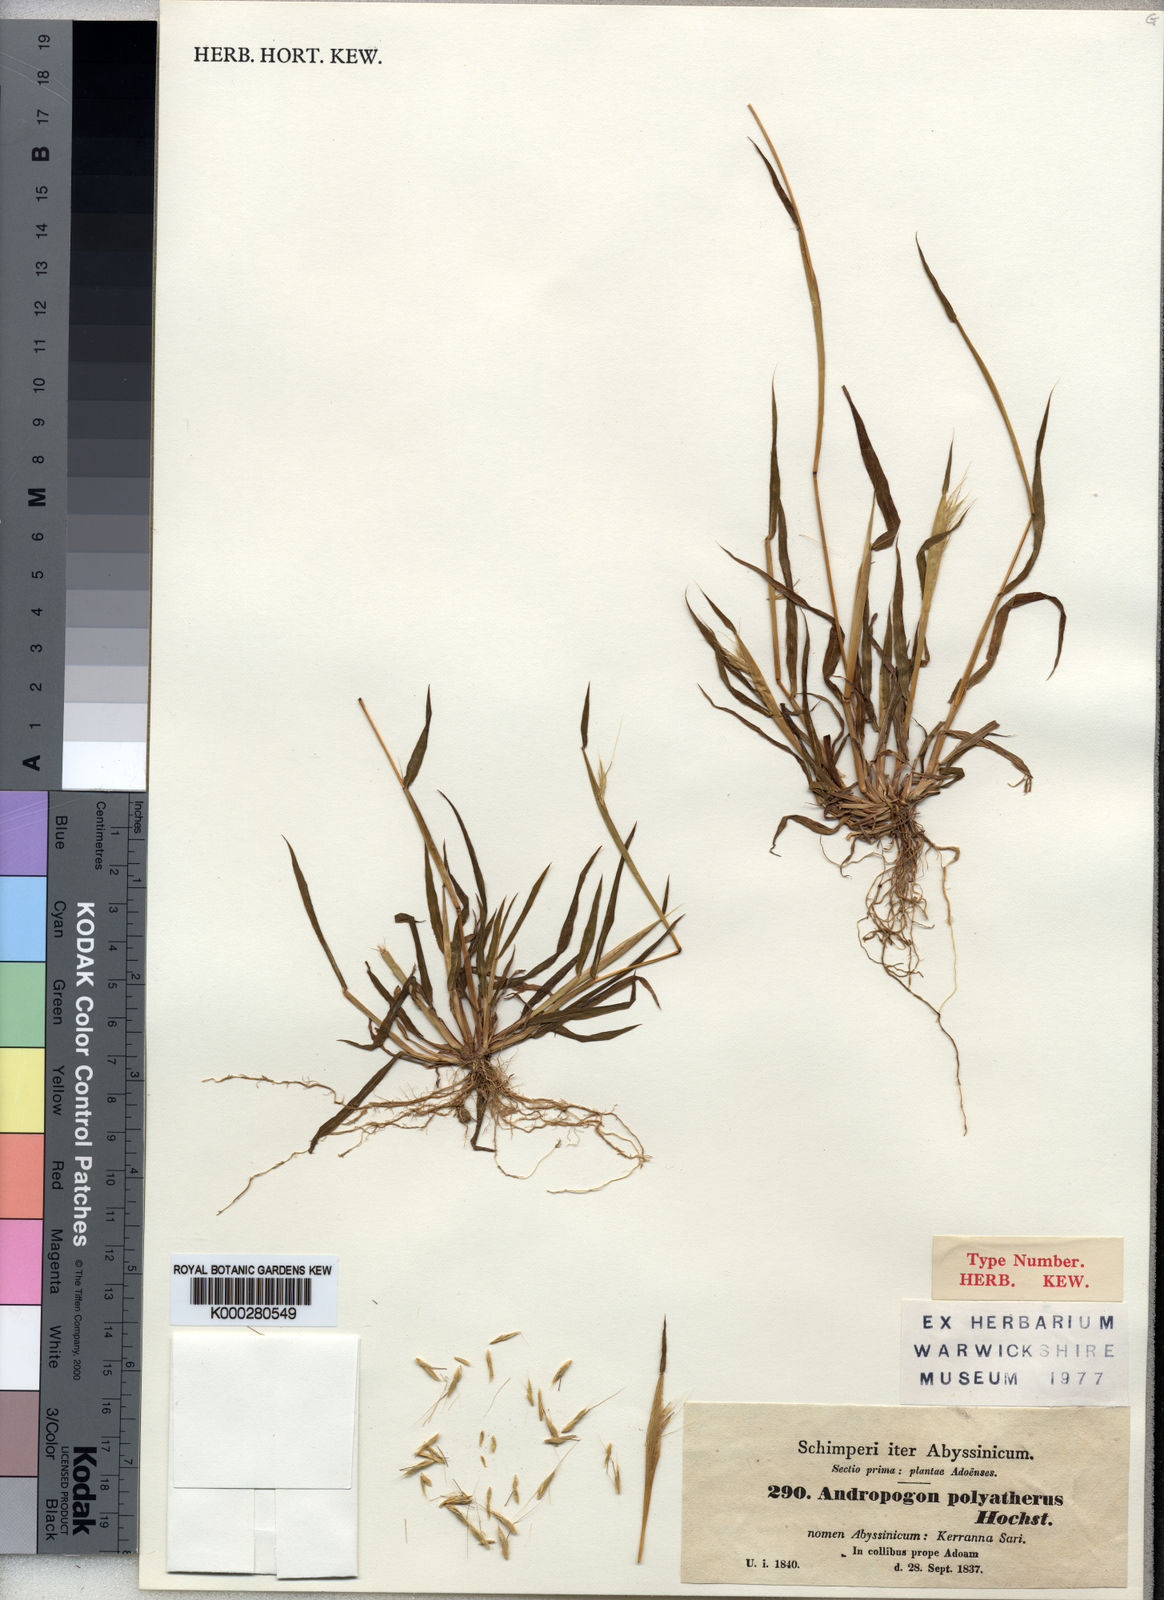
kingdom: Plantae
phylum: Tracheophyta
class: Liliopsida
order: Poales
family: Poaceae
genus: Andropogon
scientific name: Andropogon abyssinicus
